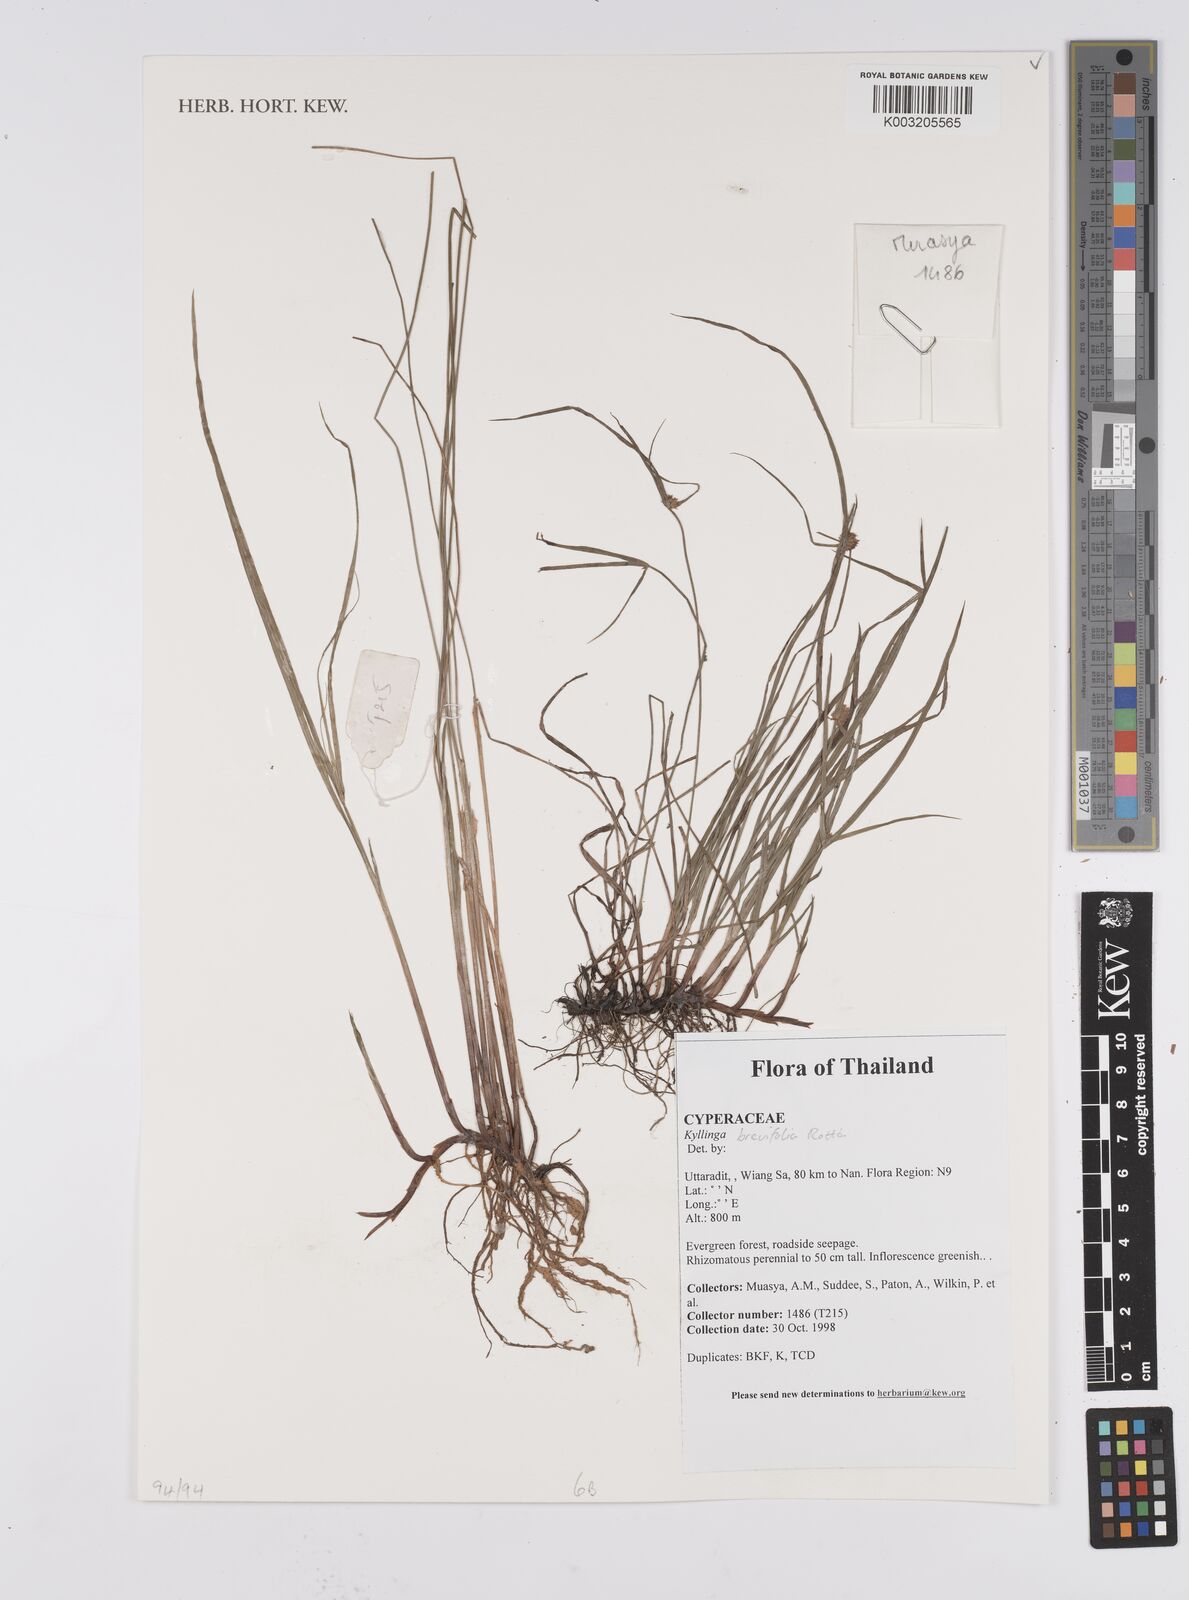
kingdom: Plantae
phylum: Tracheophyta
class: Liliopsida
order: Poales
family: Cyperaceae
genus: Cyperus
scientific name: Cyperus brevifolius
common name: Globe kyllinga
